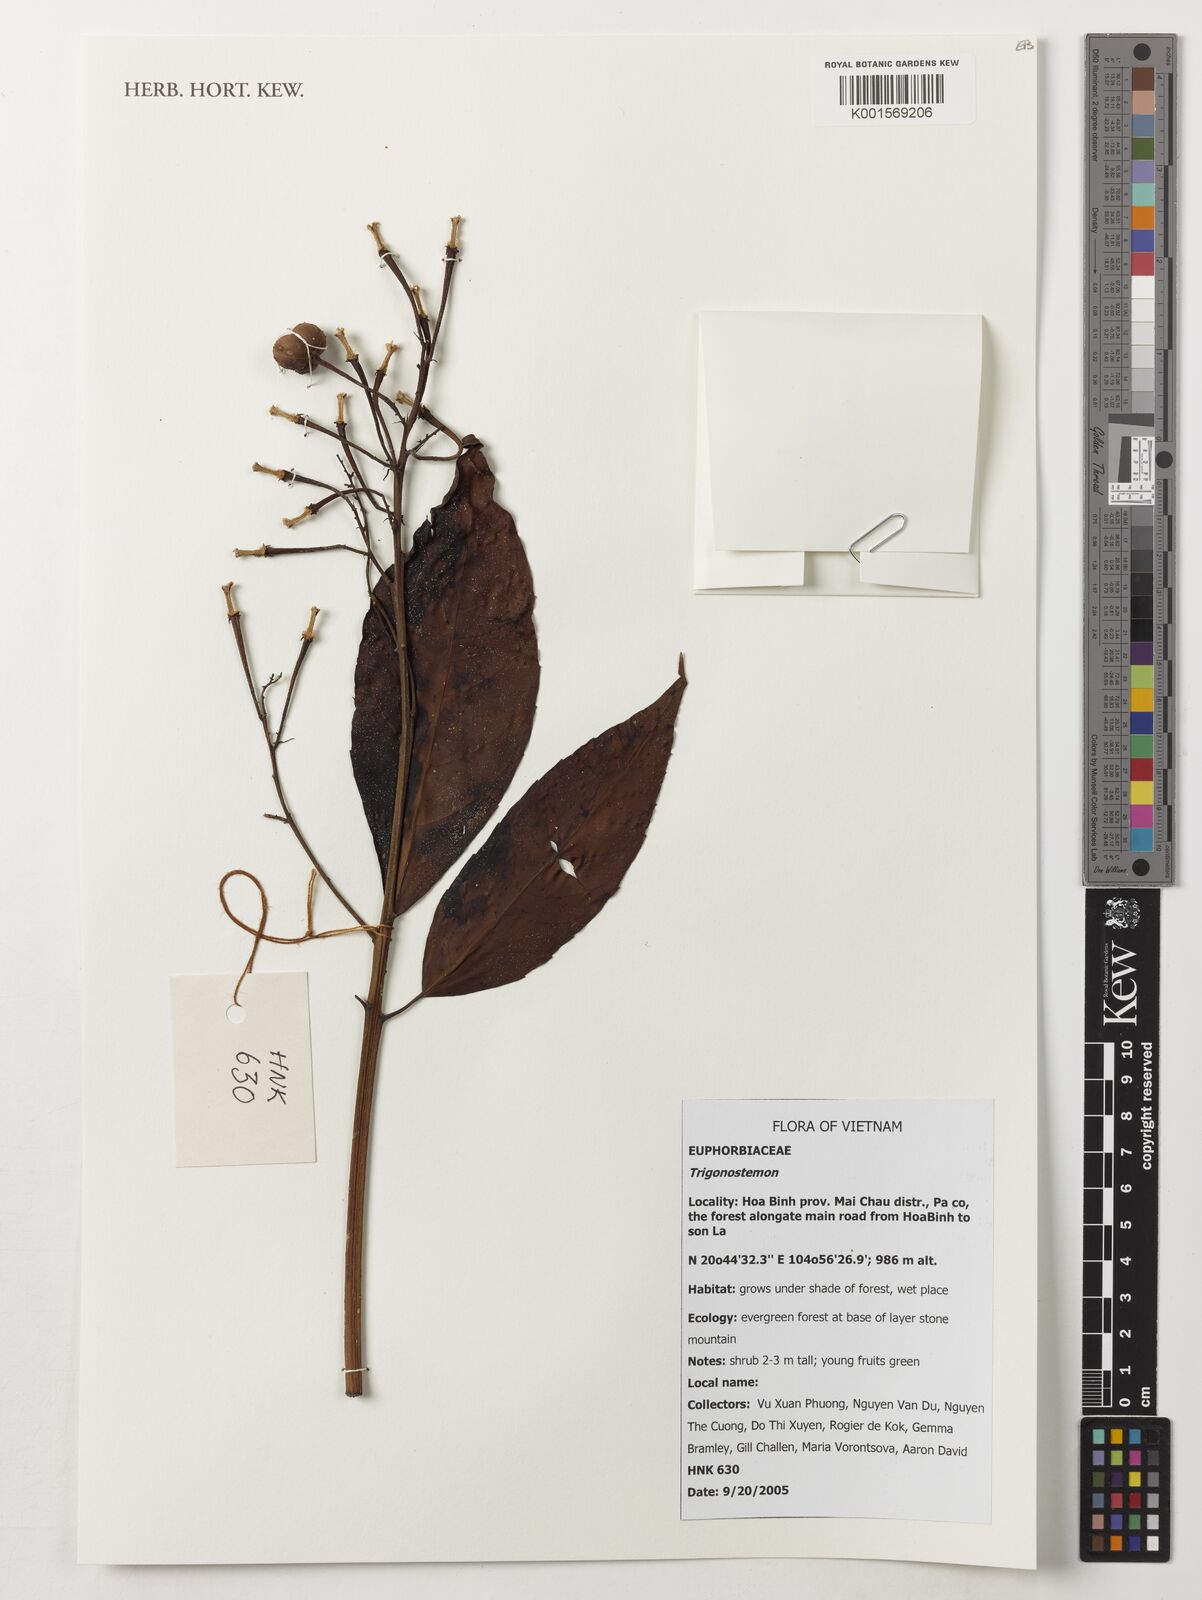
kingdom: Plantae
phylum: Tracheophyta
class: Magnoliopsida
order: Malpighiales
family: Euphorbiaceae
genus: Trigonostemon
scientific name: Trigonostemon
